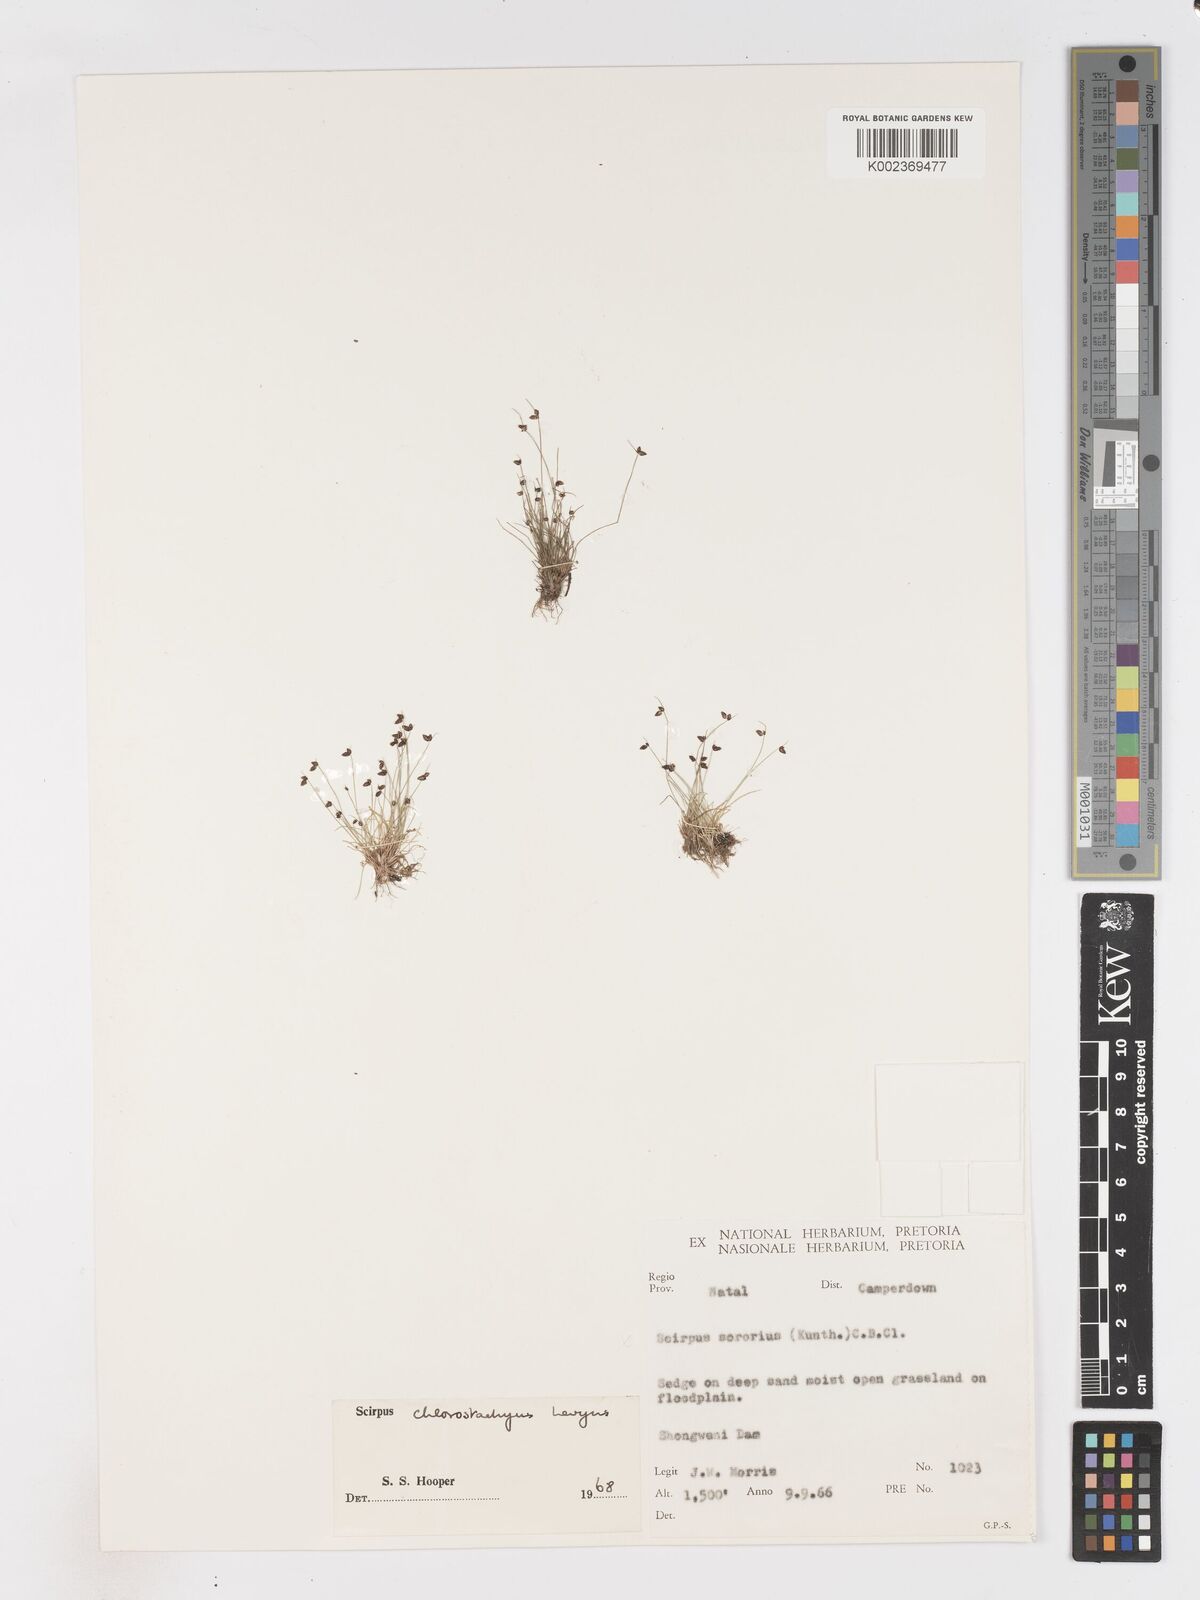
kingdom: Plantae
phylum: Tracheophyta
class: Liliopsida
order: Poales
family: Cyperaceae
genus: Isolepis
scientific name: Isolepis sepulcralis
